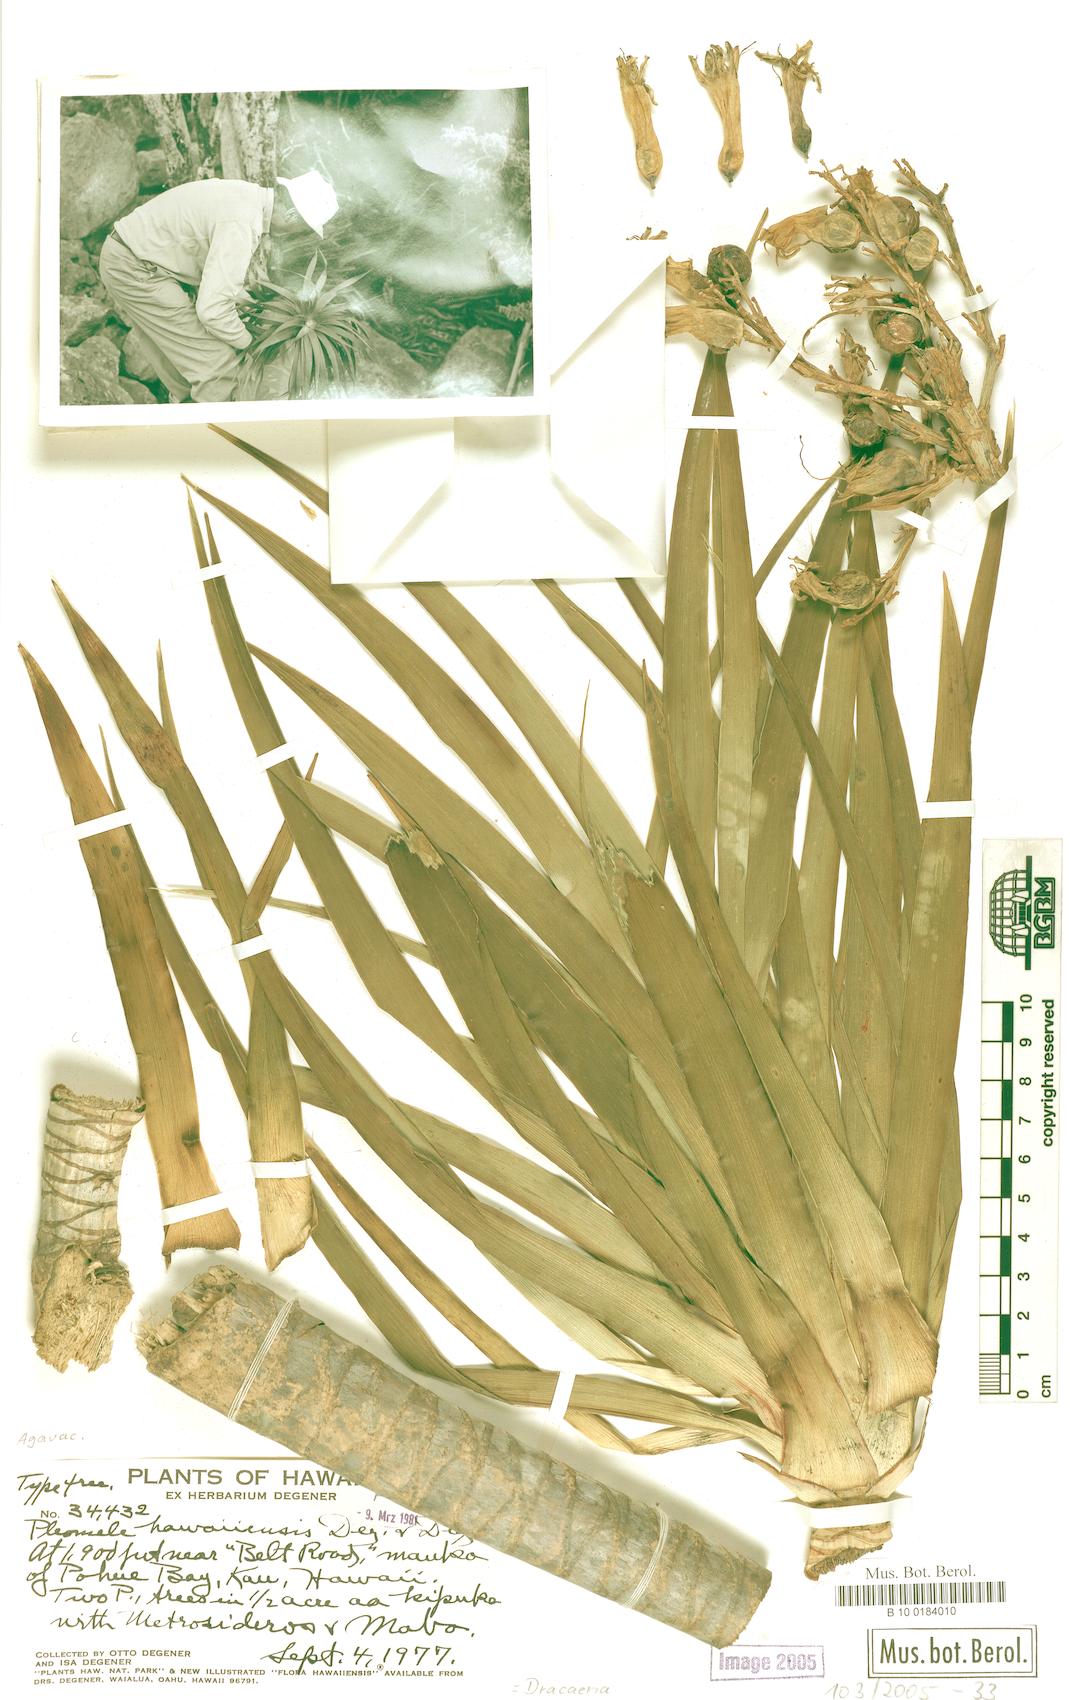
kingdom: Plantae
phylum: Tracheophyta
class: Liliopsida
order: Asparagales
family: Asparagaceae
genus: Dracaena
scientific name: Dracaena
